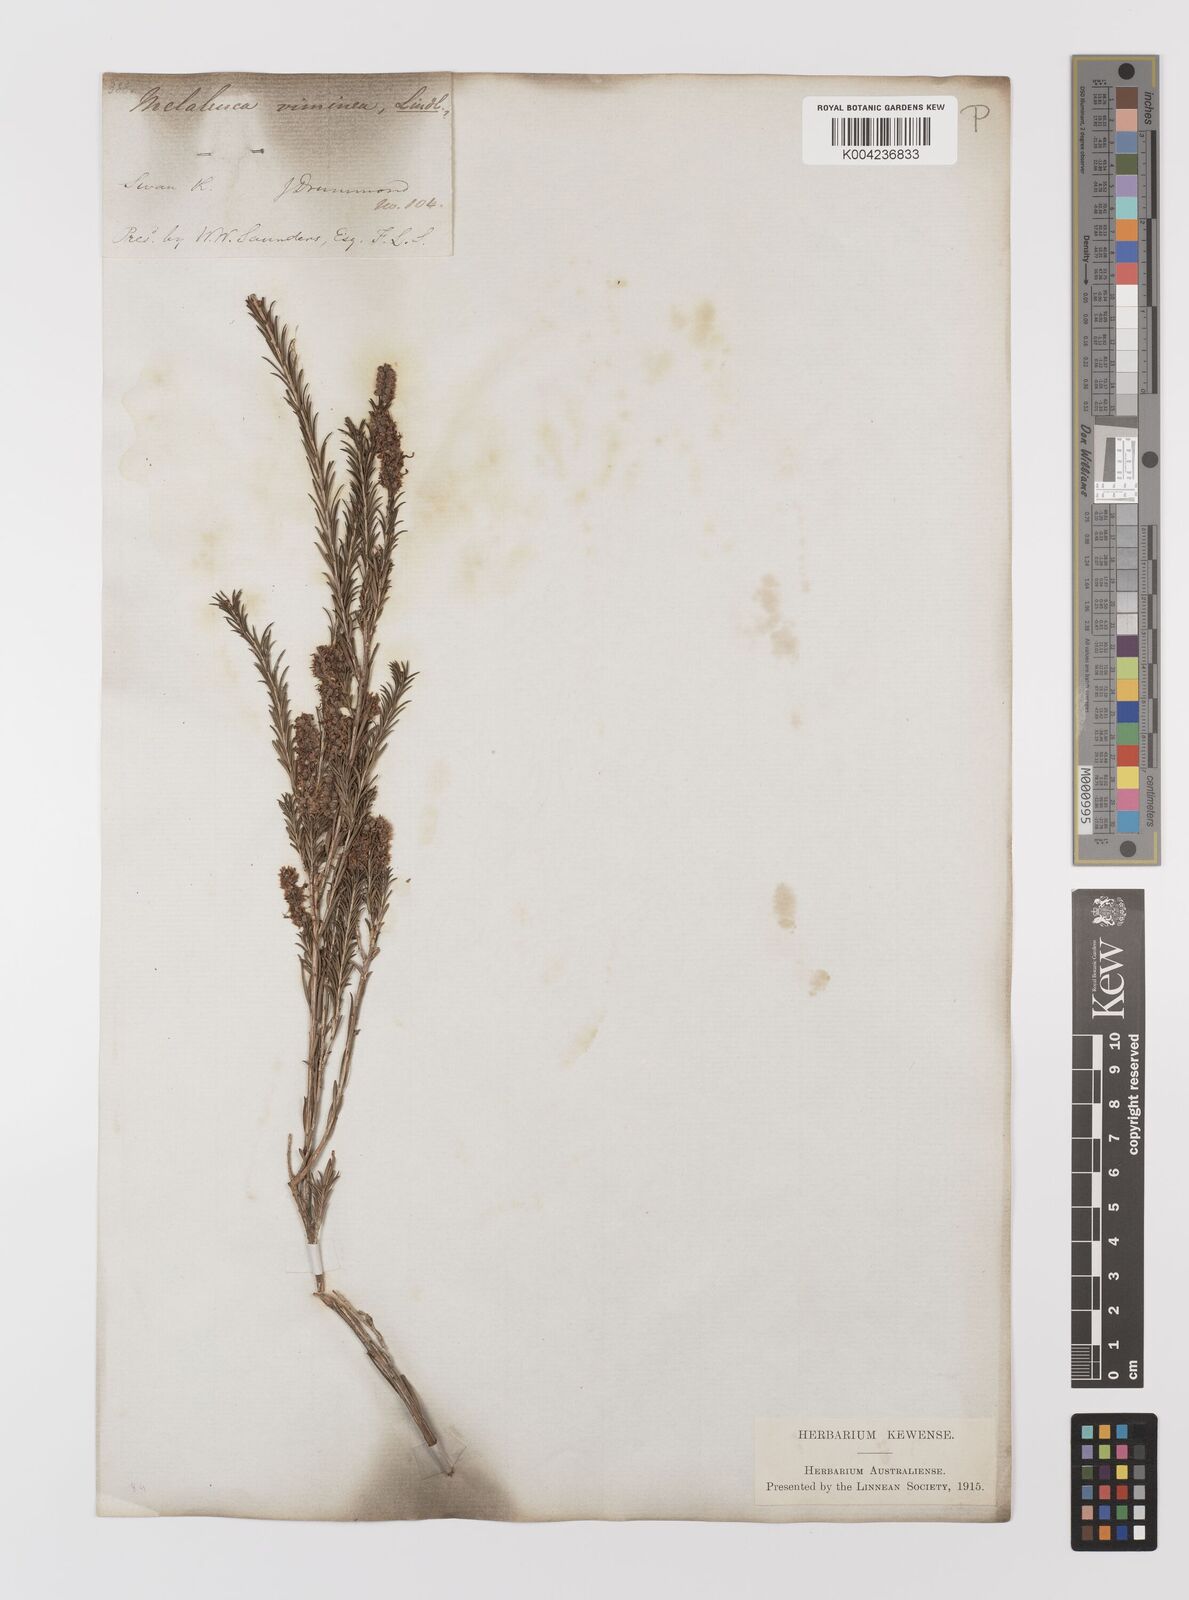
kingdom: Plantae
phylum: Tracheophyta
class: Magnoliopsida
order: Myrtales
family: Myrtaceae
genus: Melaleuca
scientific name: Melaleuca viminea
